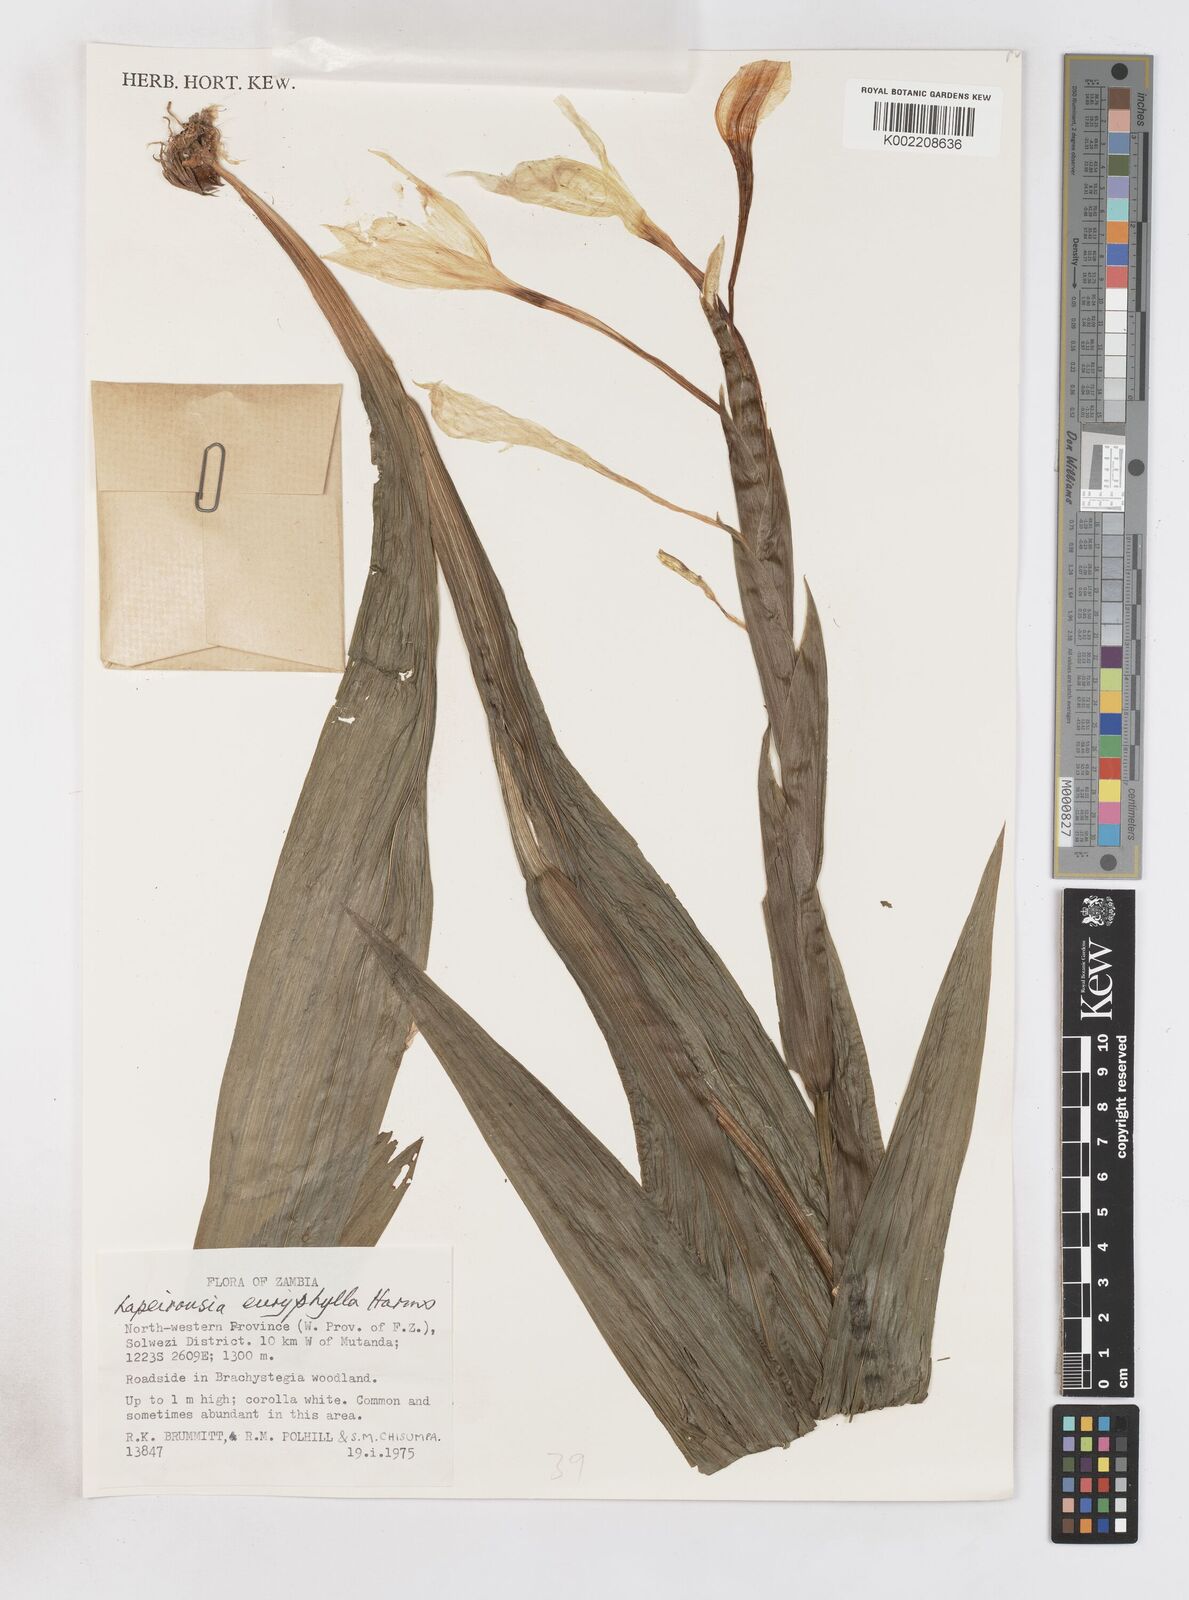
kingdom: Plantae
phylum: Tracheophyta
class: Liliopsida
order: Asparagales
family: Iridaceae
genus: Savannosiphon
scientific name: Savannosiphon euryphylla
